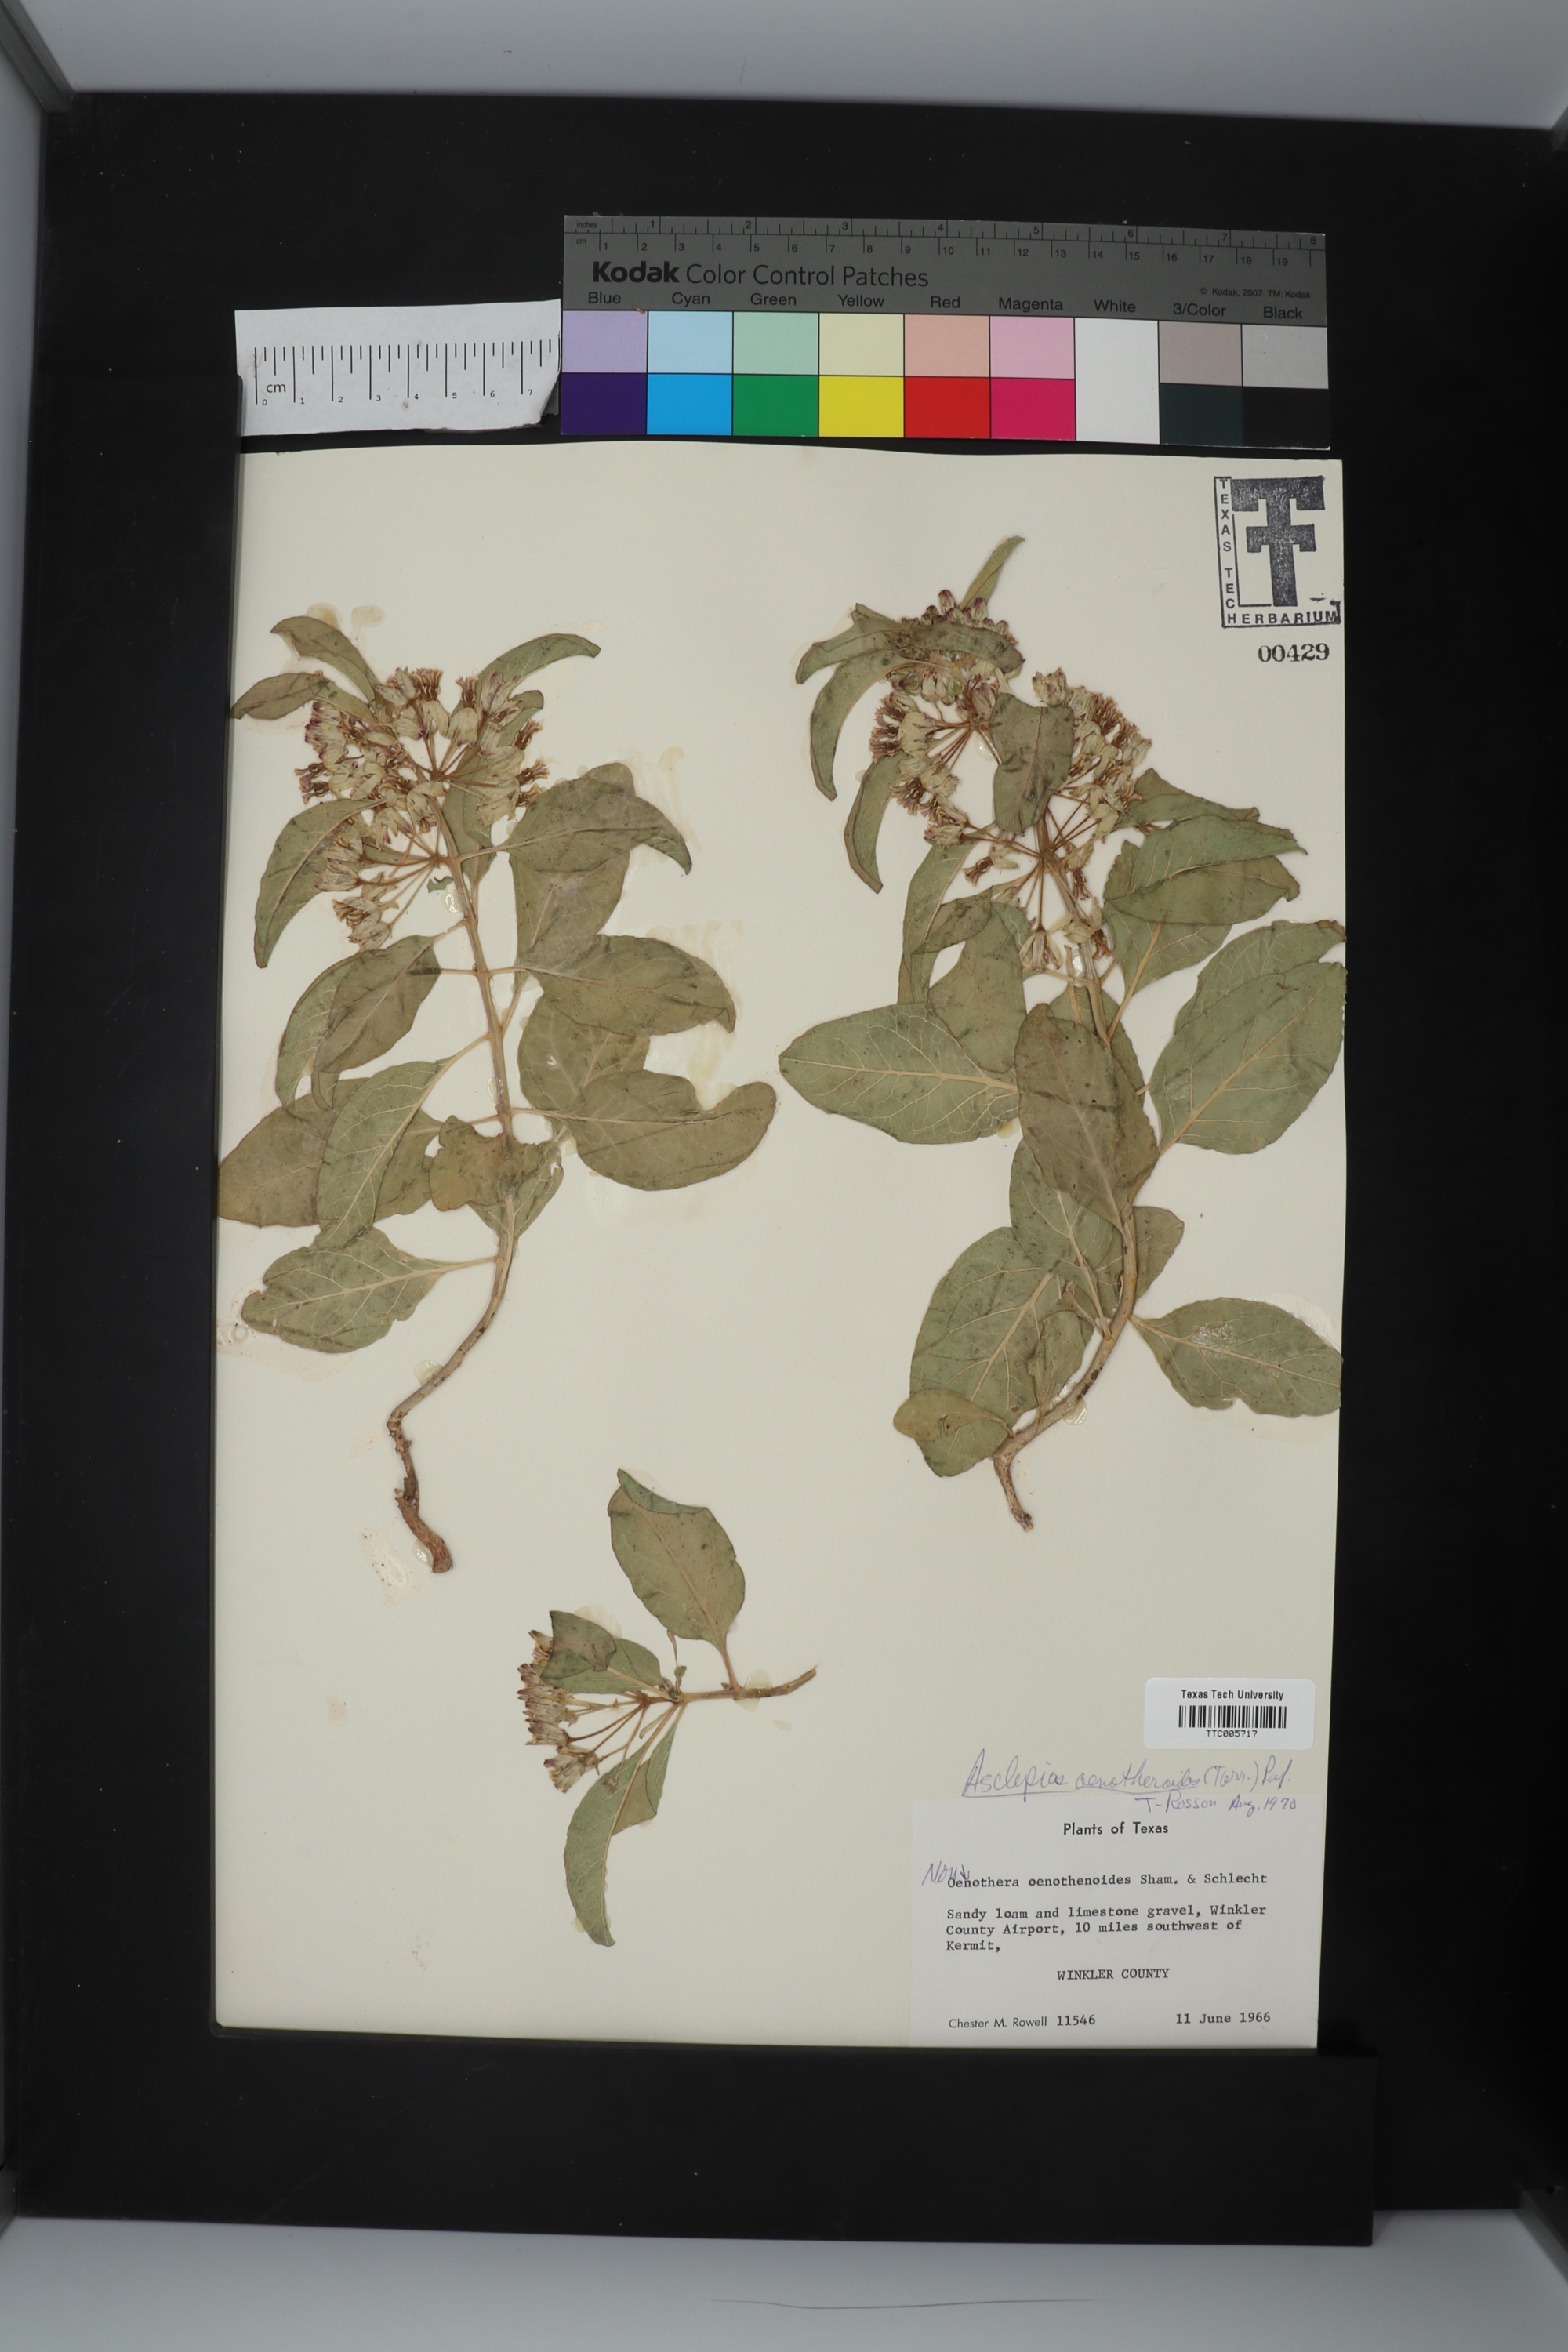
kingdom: Plantae
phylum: Tracheophyta
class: Magnoliopsida
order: Gentianales
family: Apocynaceae
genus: Asclepias
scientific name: Asclepias oenotheroides
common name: Zizotes milkweed
